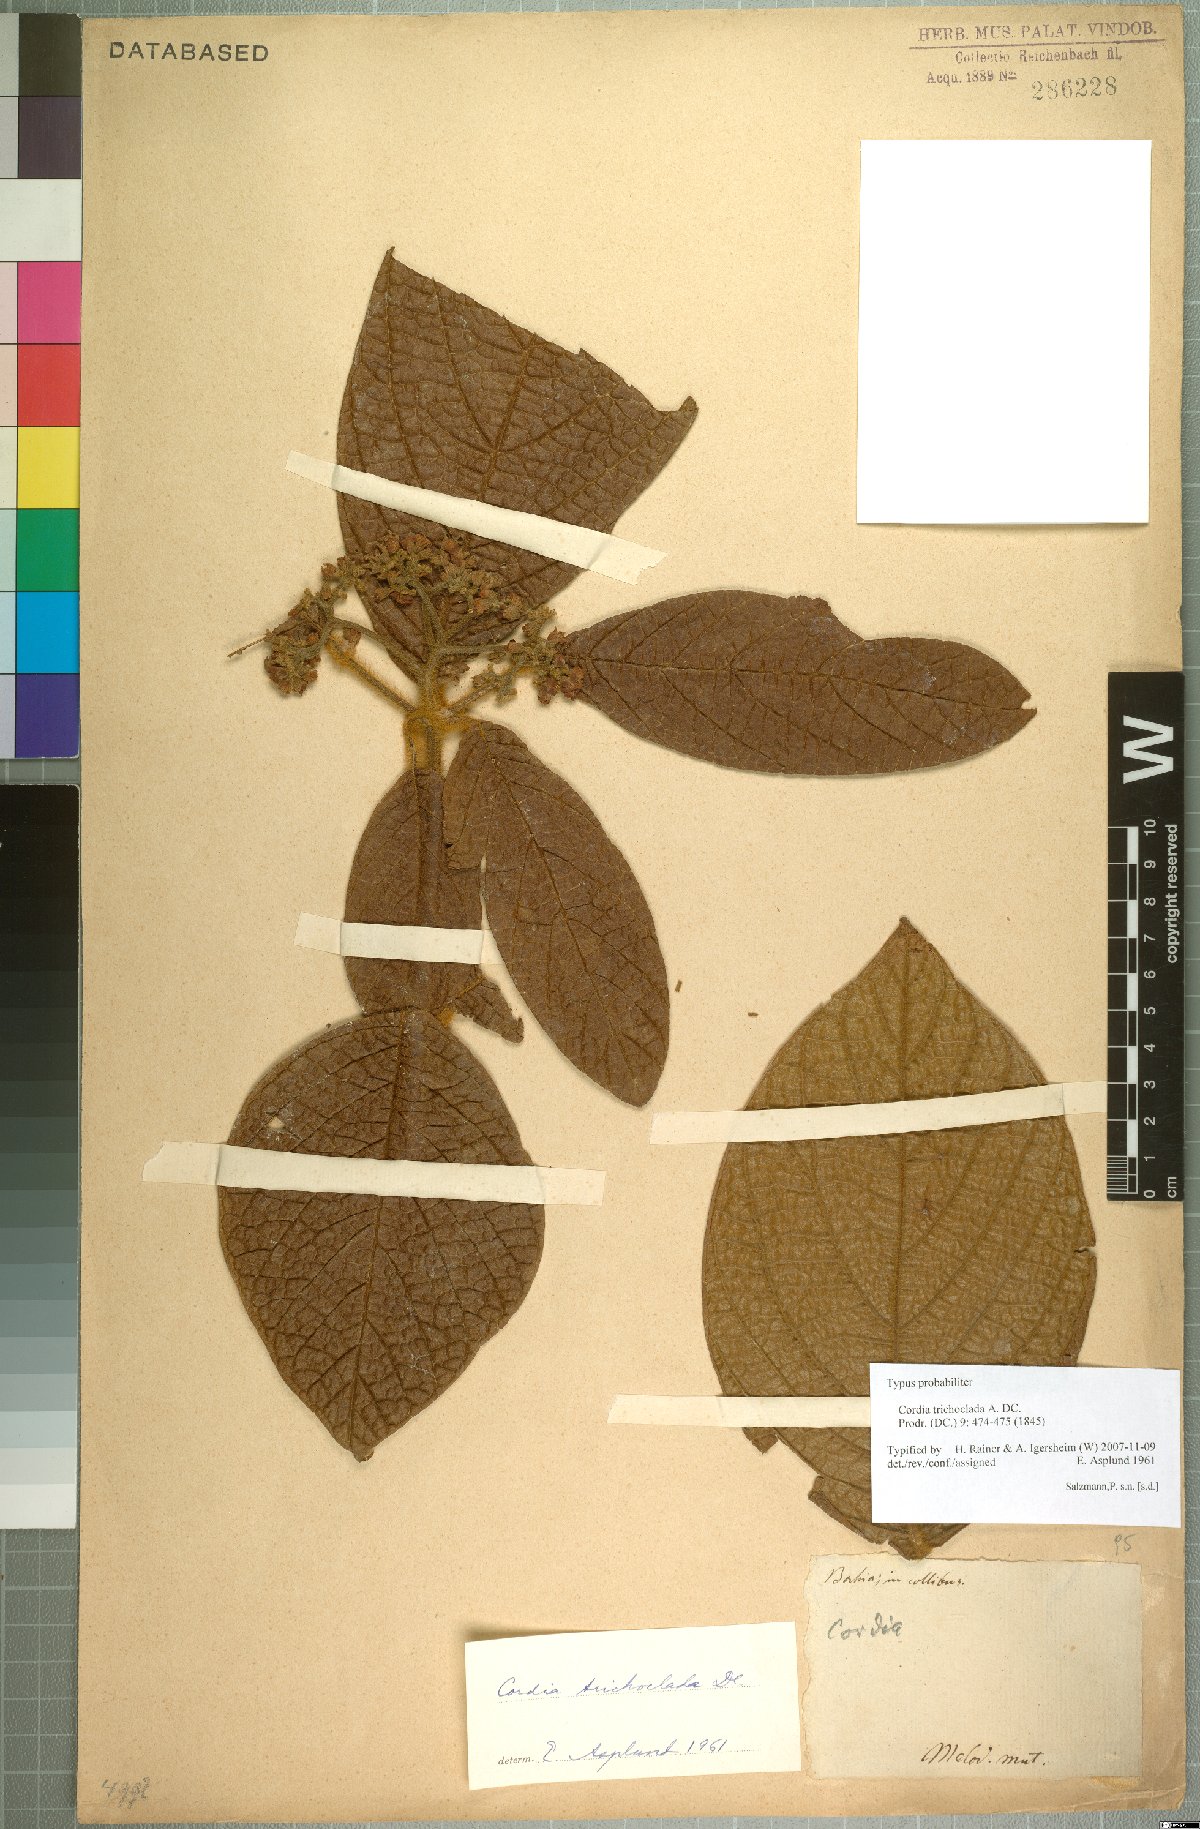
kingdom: Plantae
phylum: Tracheophyta
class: Magnoliopsida
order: Boraginales
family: Cordiaceae
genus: Cordia
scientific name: Cordia trichoclada
